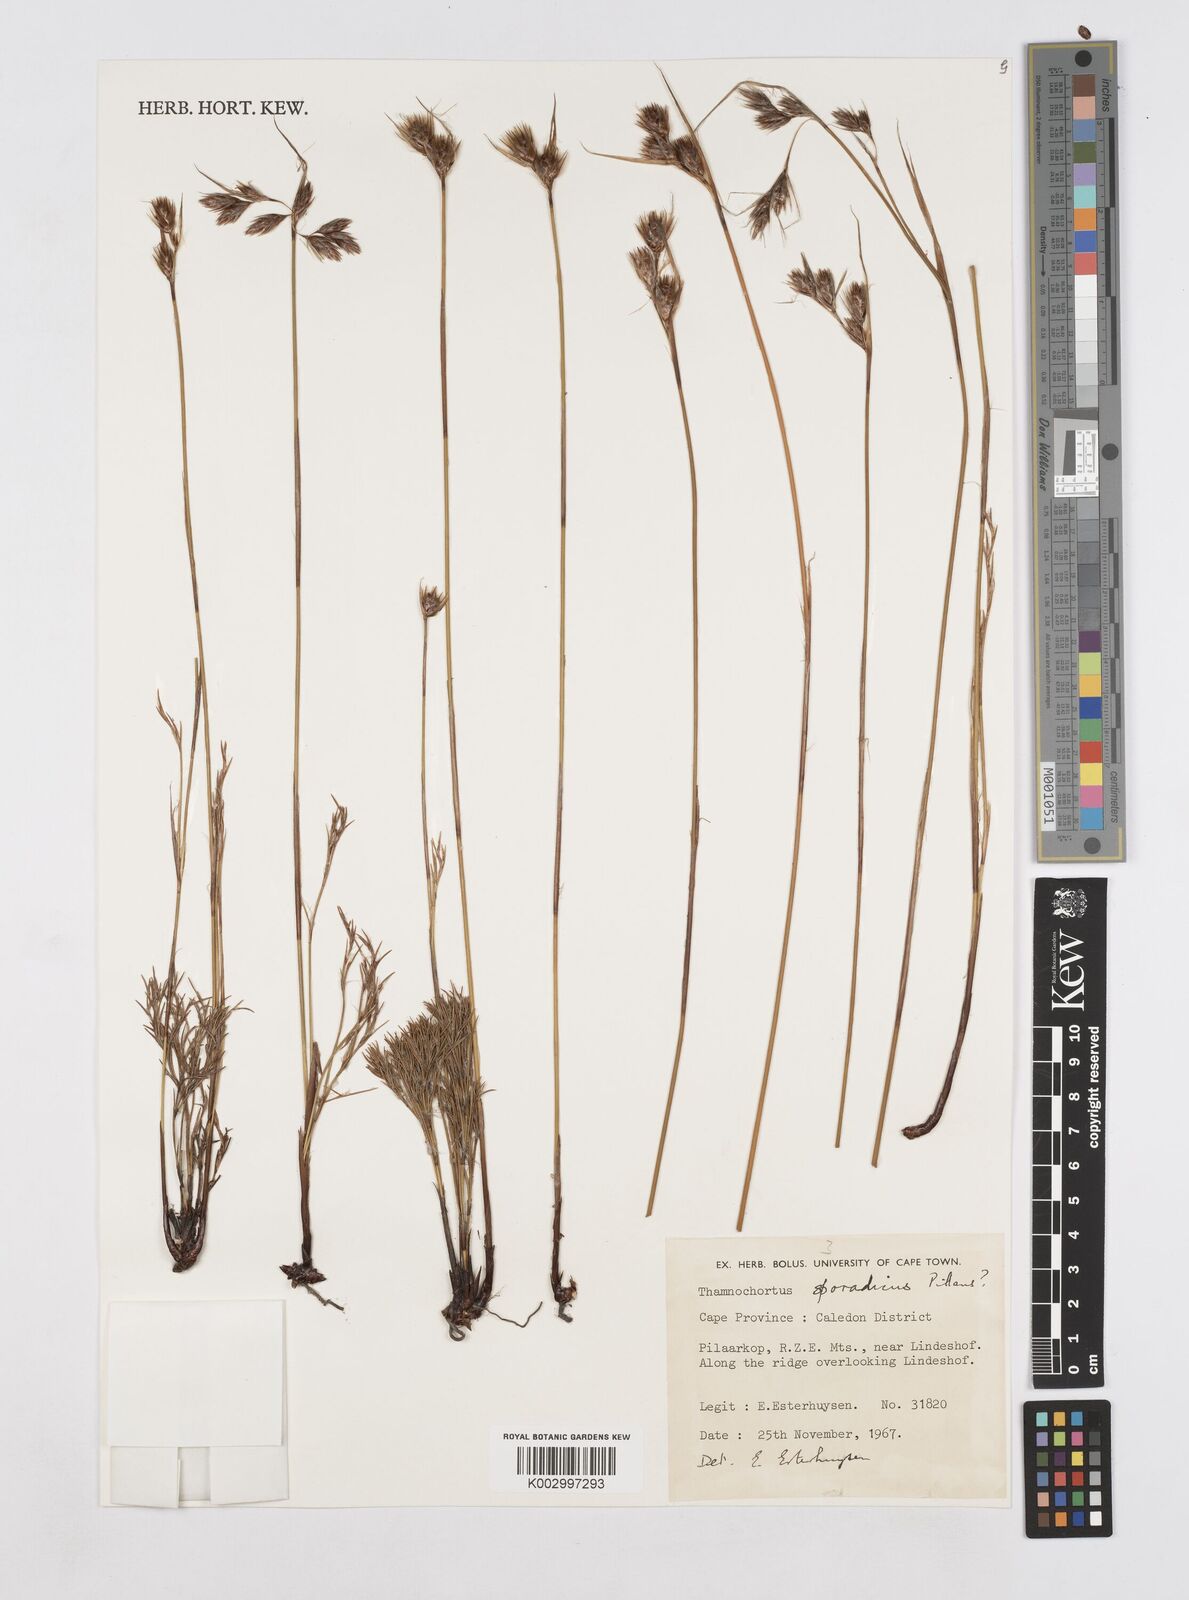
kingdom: Plantae
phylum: Tracheophyta
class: Liliopsida
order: Poales
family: Restionaceae
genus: Thamnochortus
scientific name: Thamnochortus sporadicus
